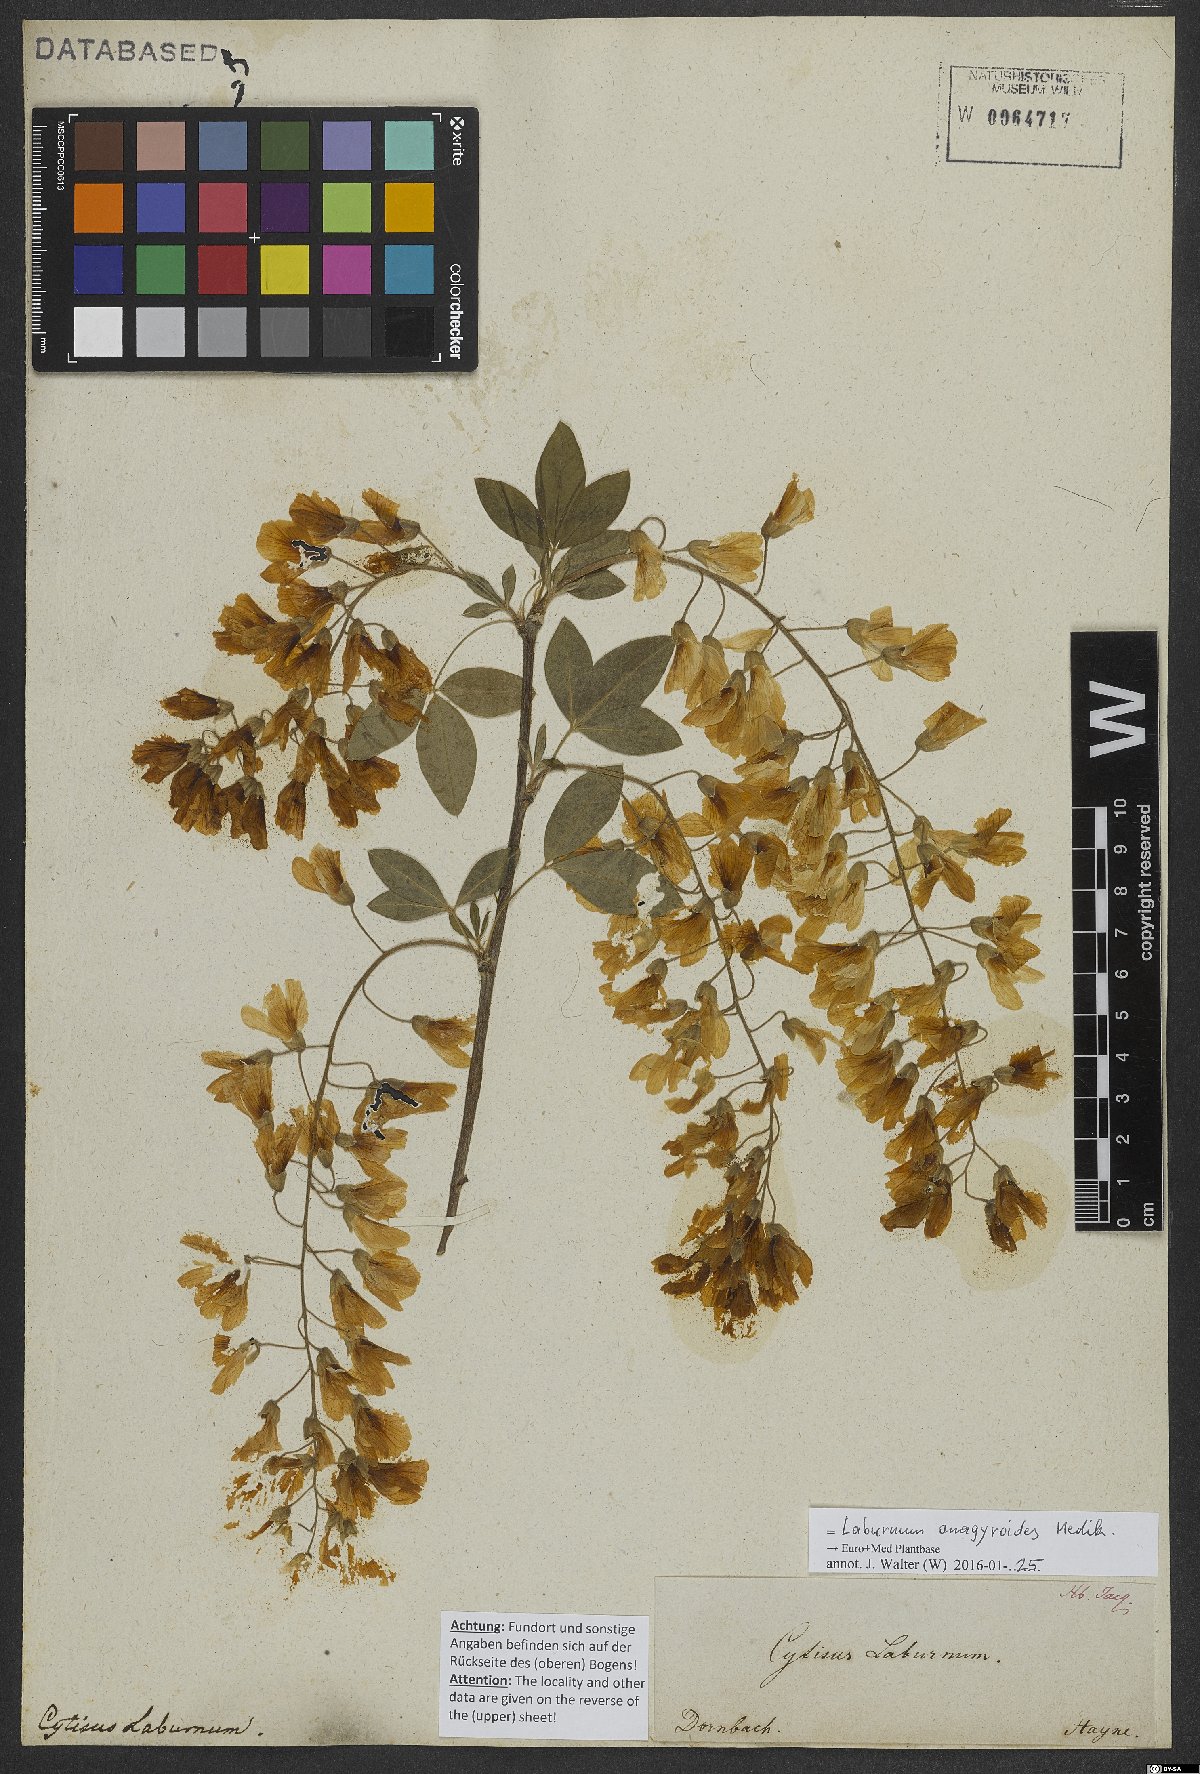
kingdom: Plantae
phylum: Tracheophyta
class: Magnoliopsida
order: Fabales
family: Fabaceae
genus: Laburnum
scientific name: Laburnum anagyroides
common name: Laburnum
